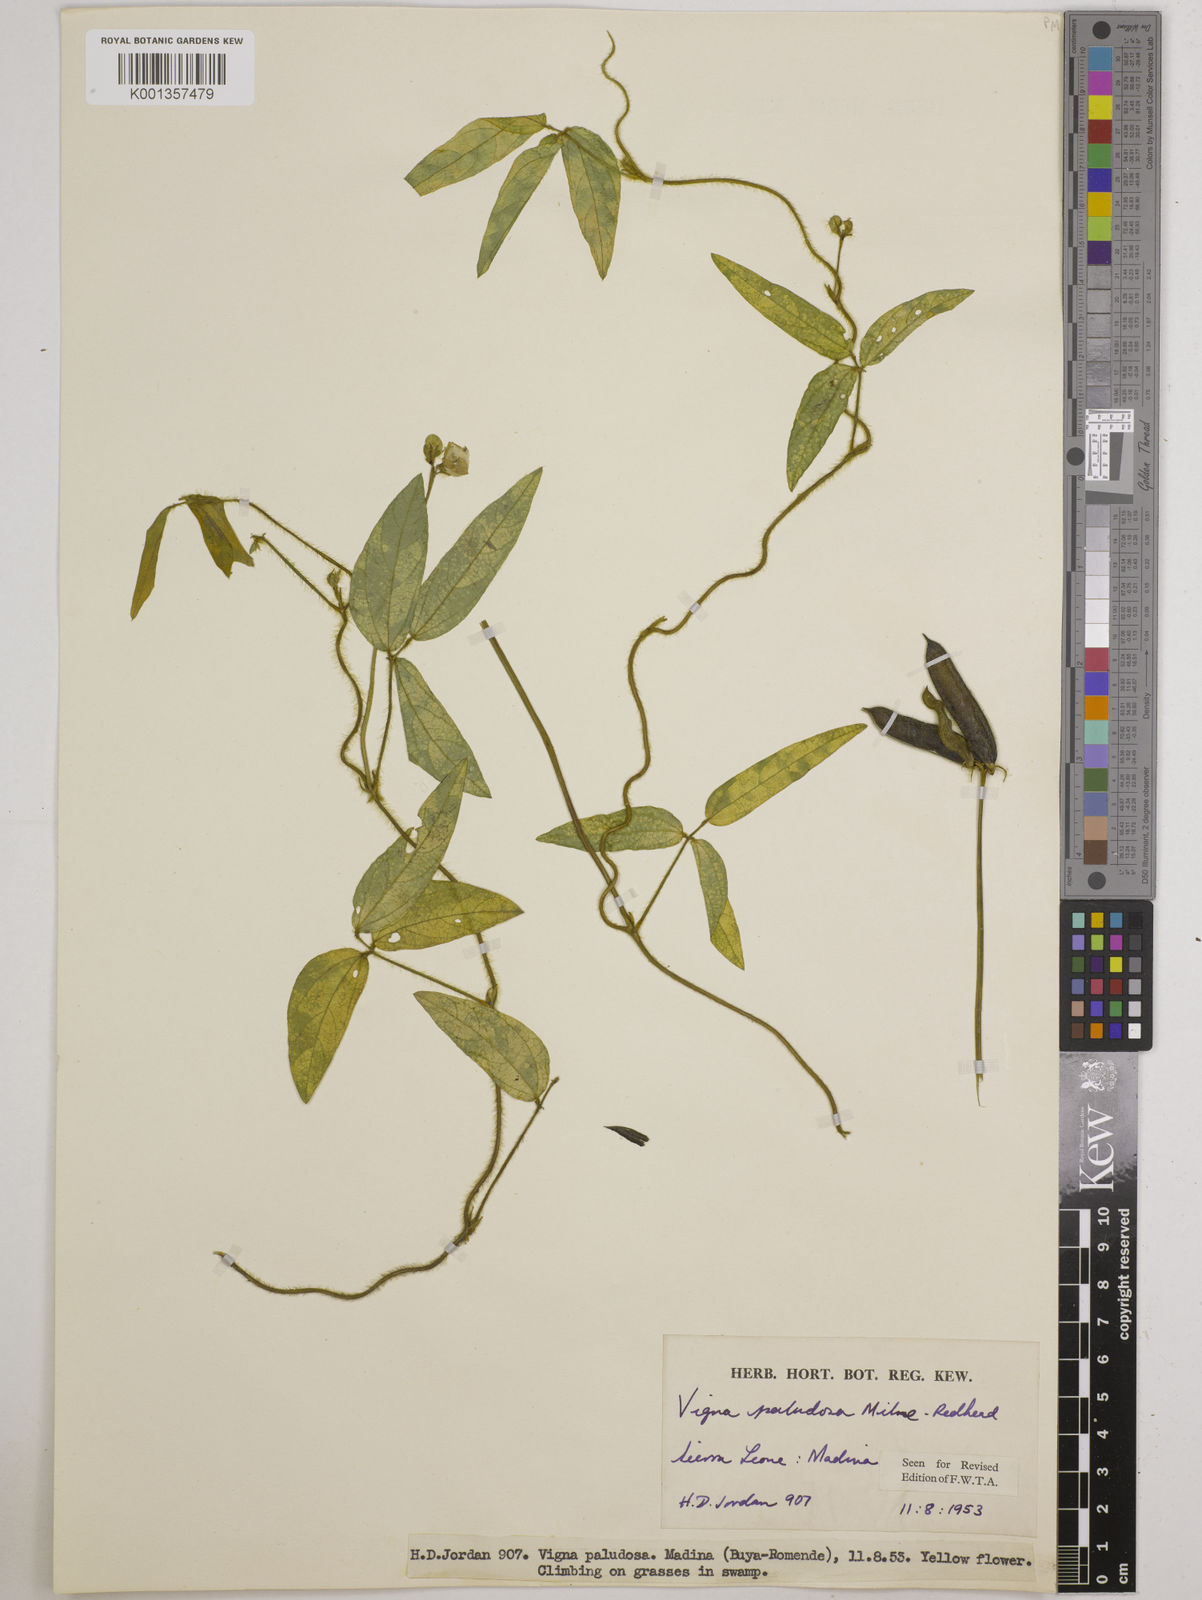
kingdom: Plantae
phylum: Tracheophyta
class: Magnoliopsida
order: Fabales
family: Fabaceae
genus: Vigna
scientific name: Vigna longifolia
